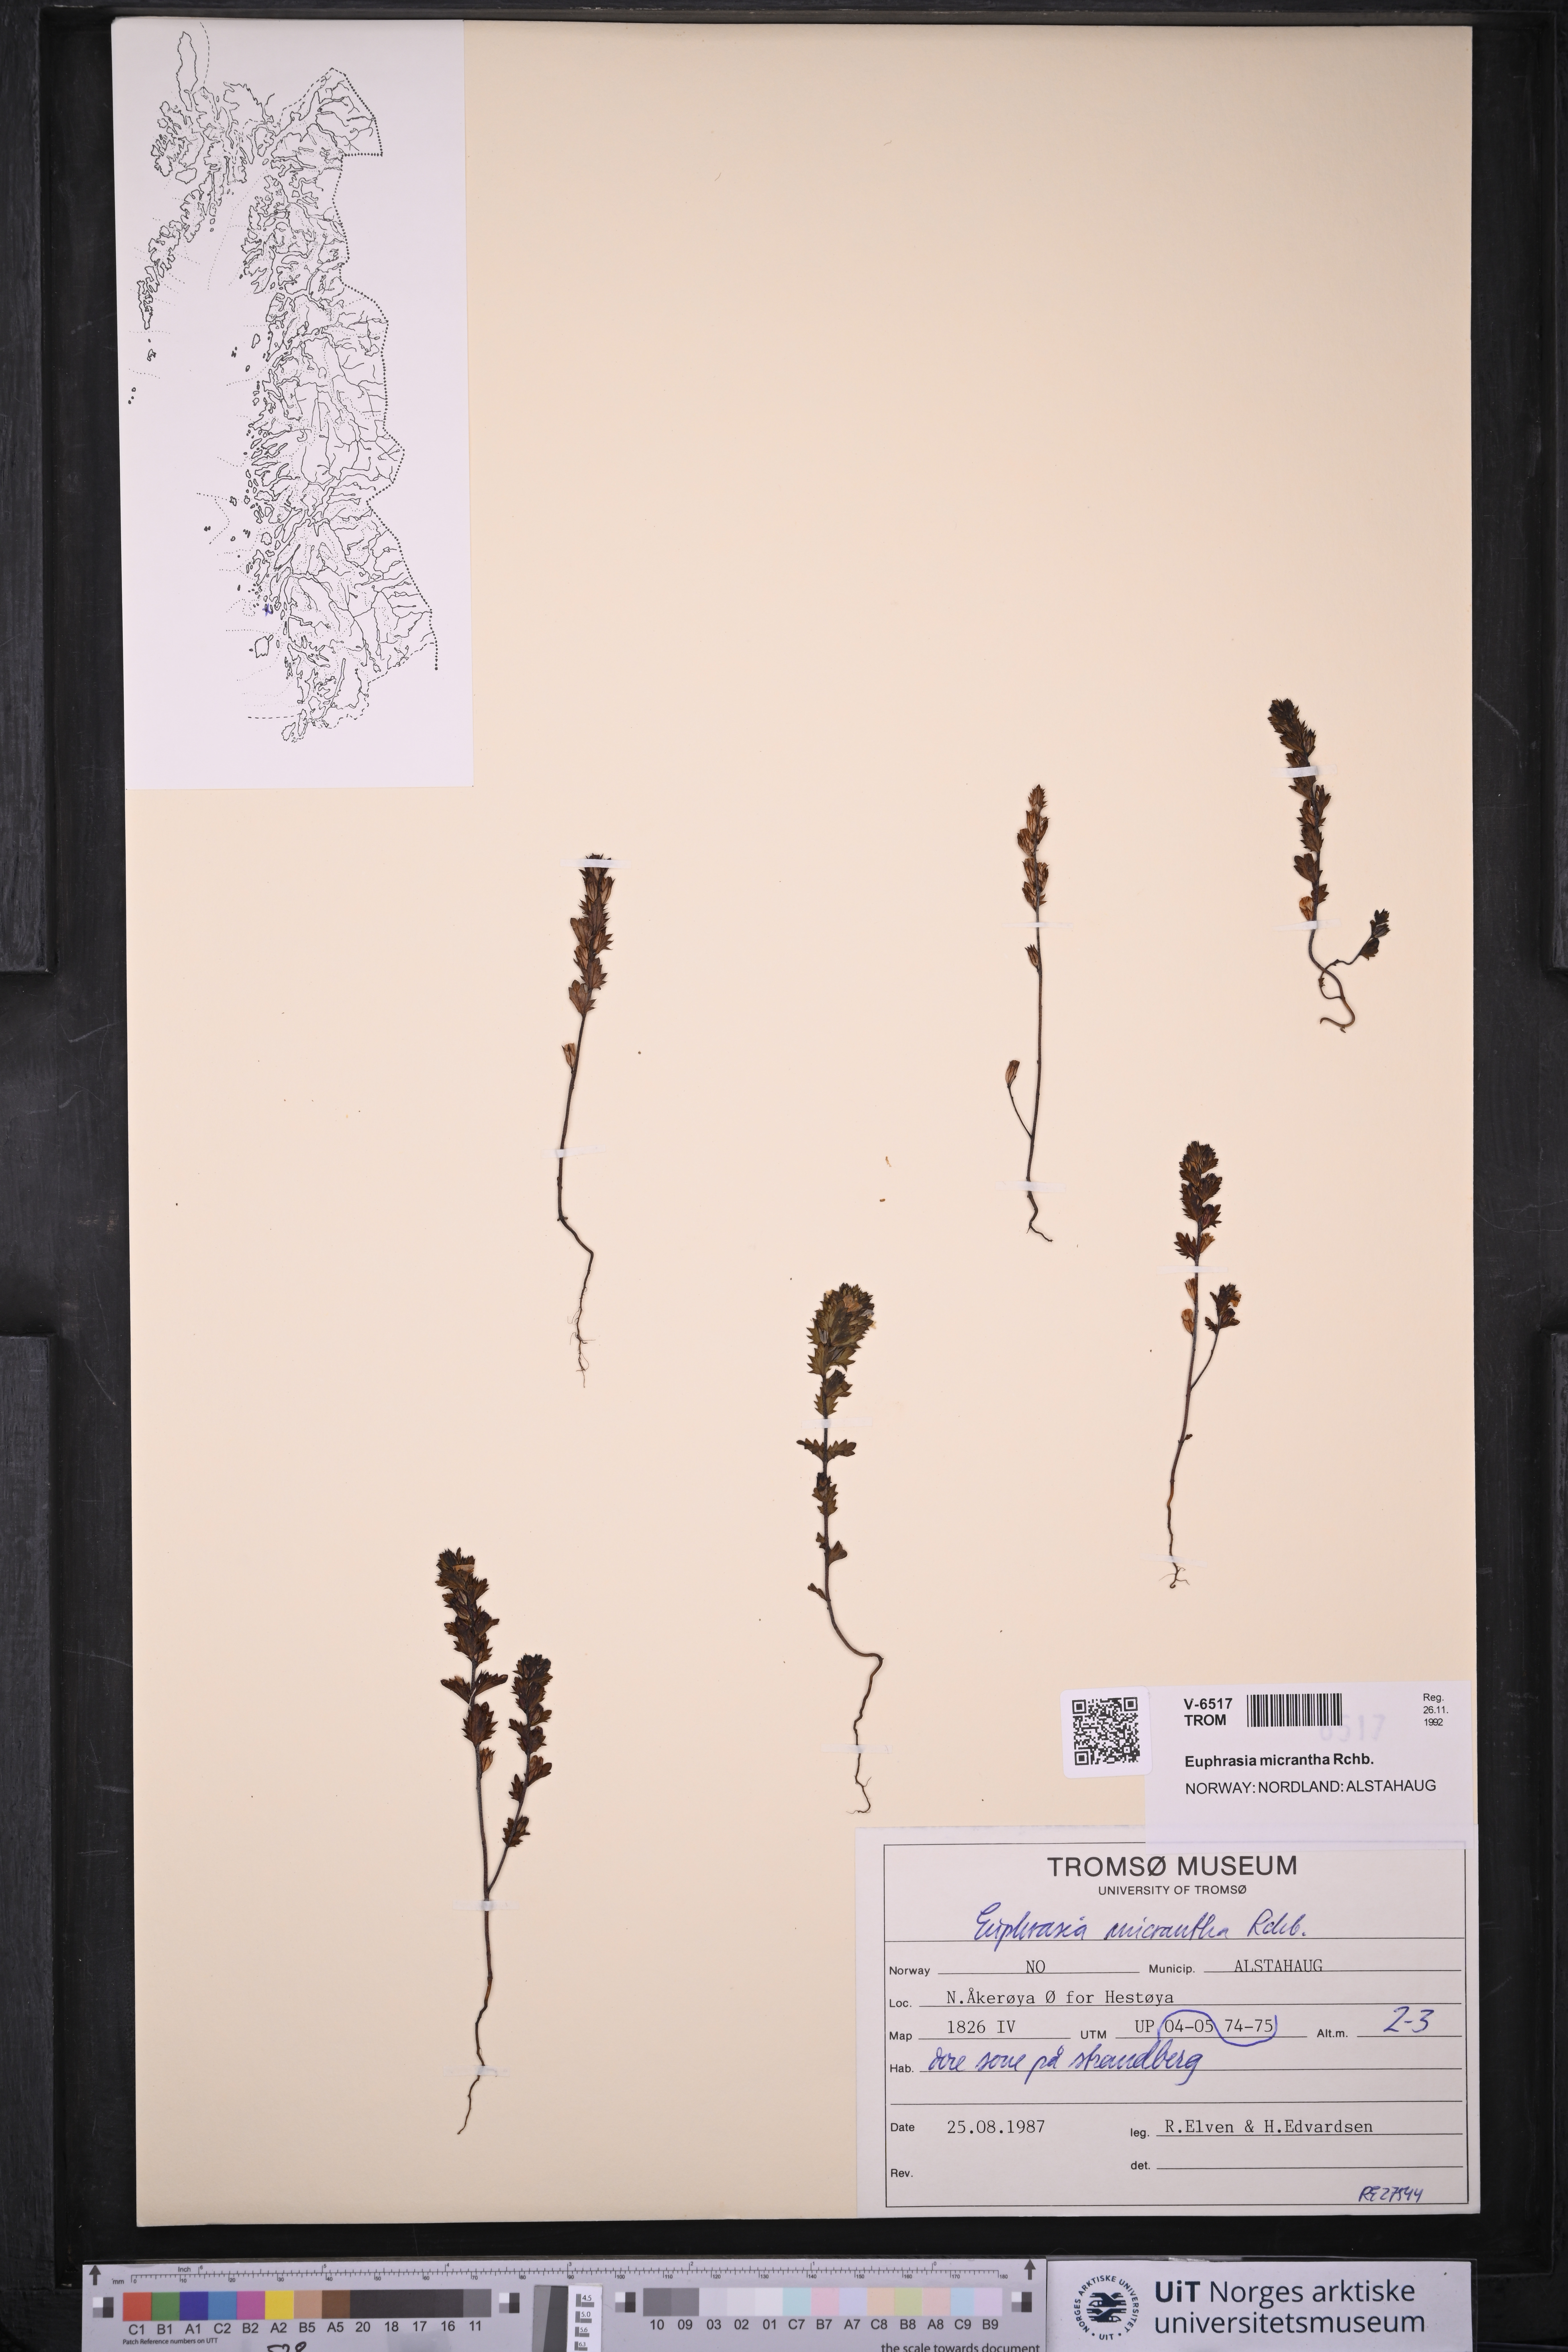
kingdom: Plantae
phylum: Tracheophyta
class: Magnoliopsida
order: Lamiales
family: Orobanchaceae
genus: Euphrasia
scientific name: Euphrasia micrantha
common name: Northern eyebright
